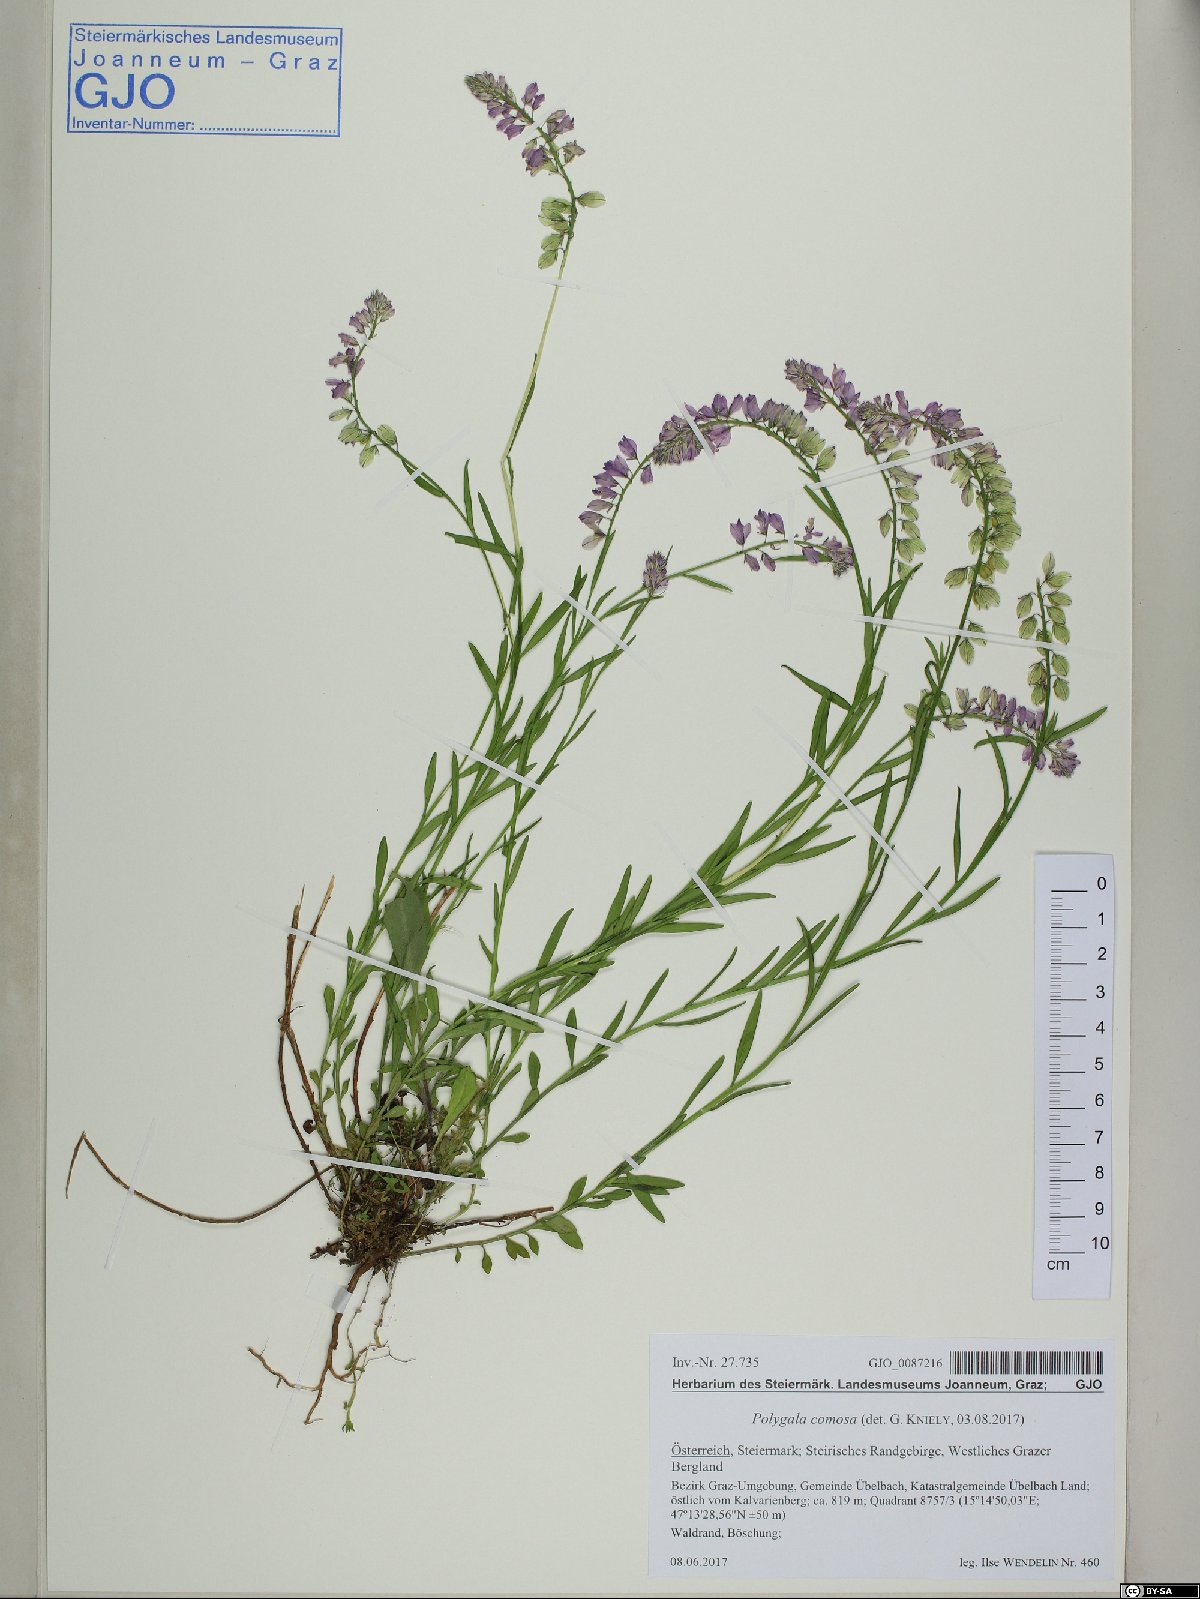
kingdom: Plantae
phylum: Tracheophyta
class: Magnoliopsida
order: Fabales
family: Polygalaceae
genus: Polygala
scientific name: Polygala comosa
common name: Tufted milkwort
